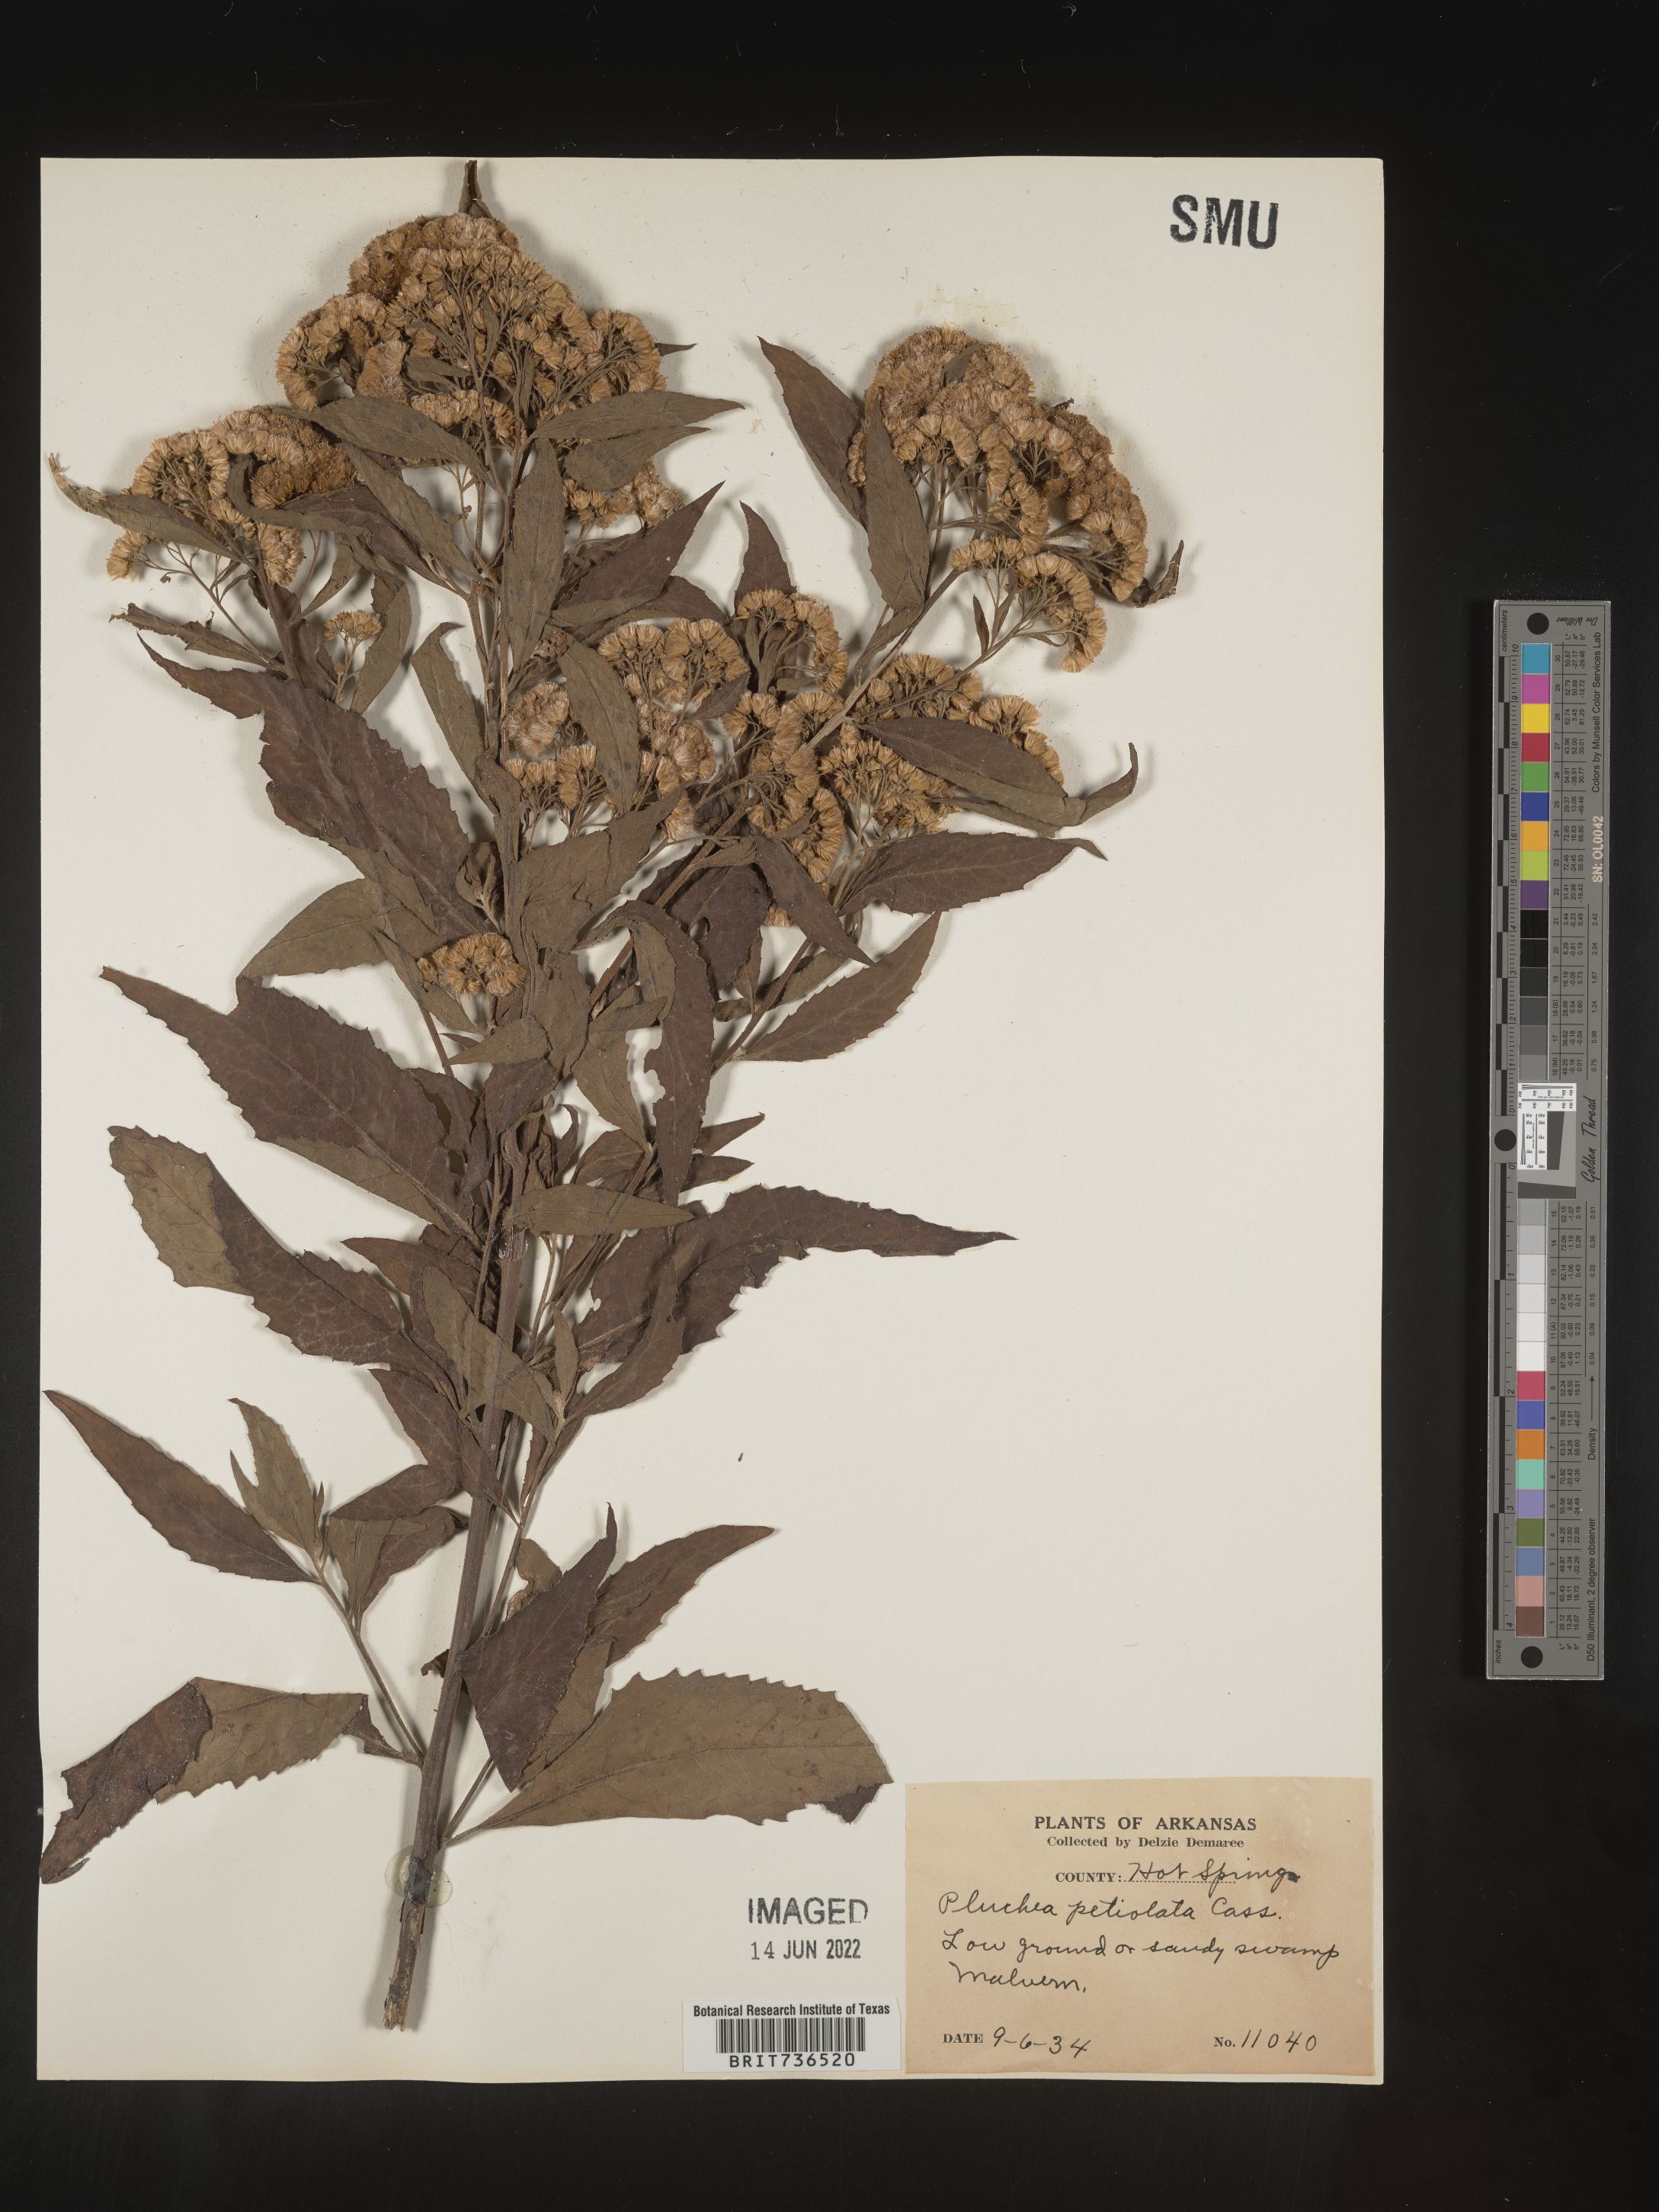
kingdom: Plantae
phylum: Tracheophyta
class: Magnoliopsida
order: Asterales
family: Asteraceae
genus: Pluchea
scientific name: Pluchea camphorata
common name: Camphor pluchea
